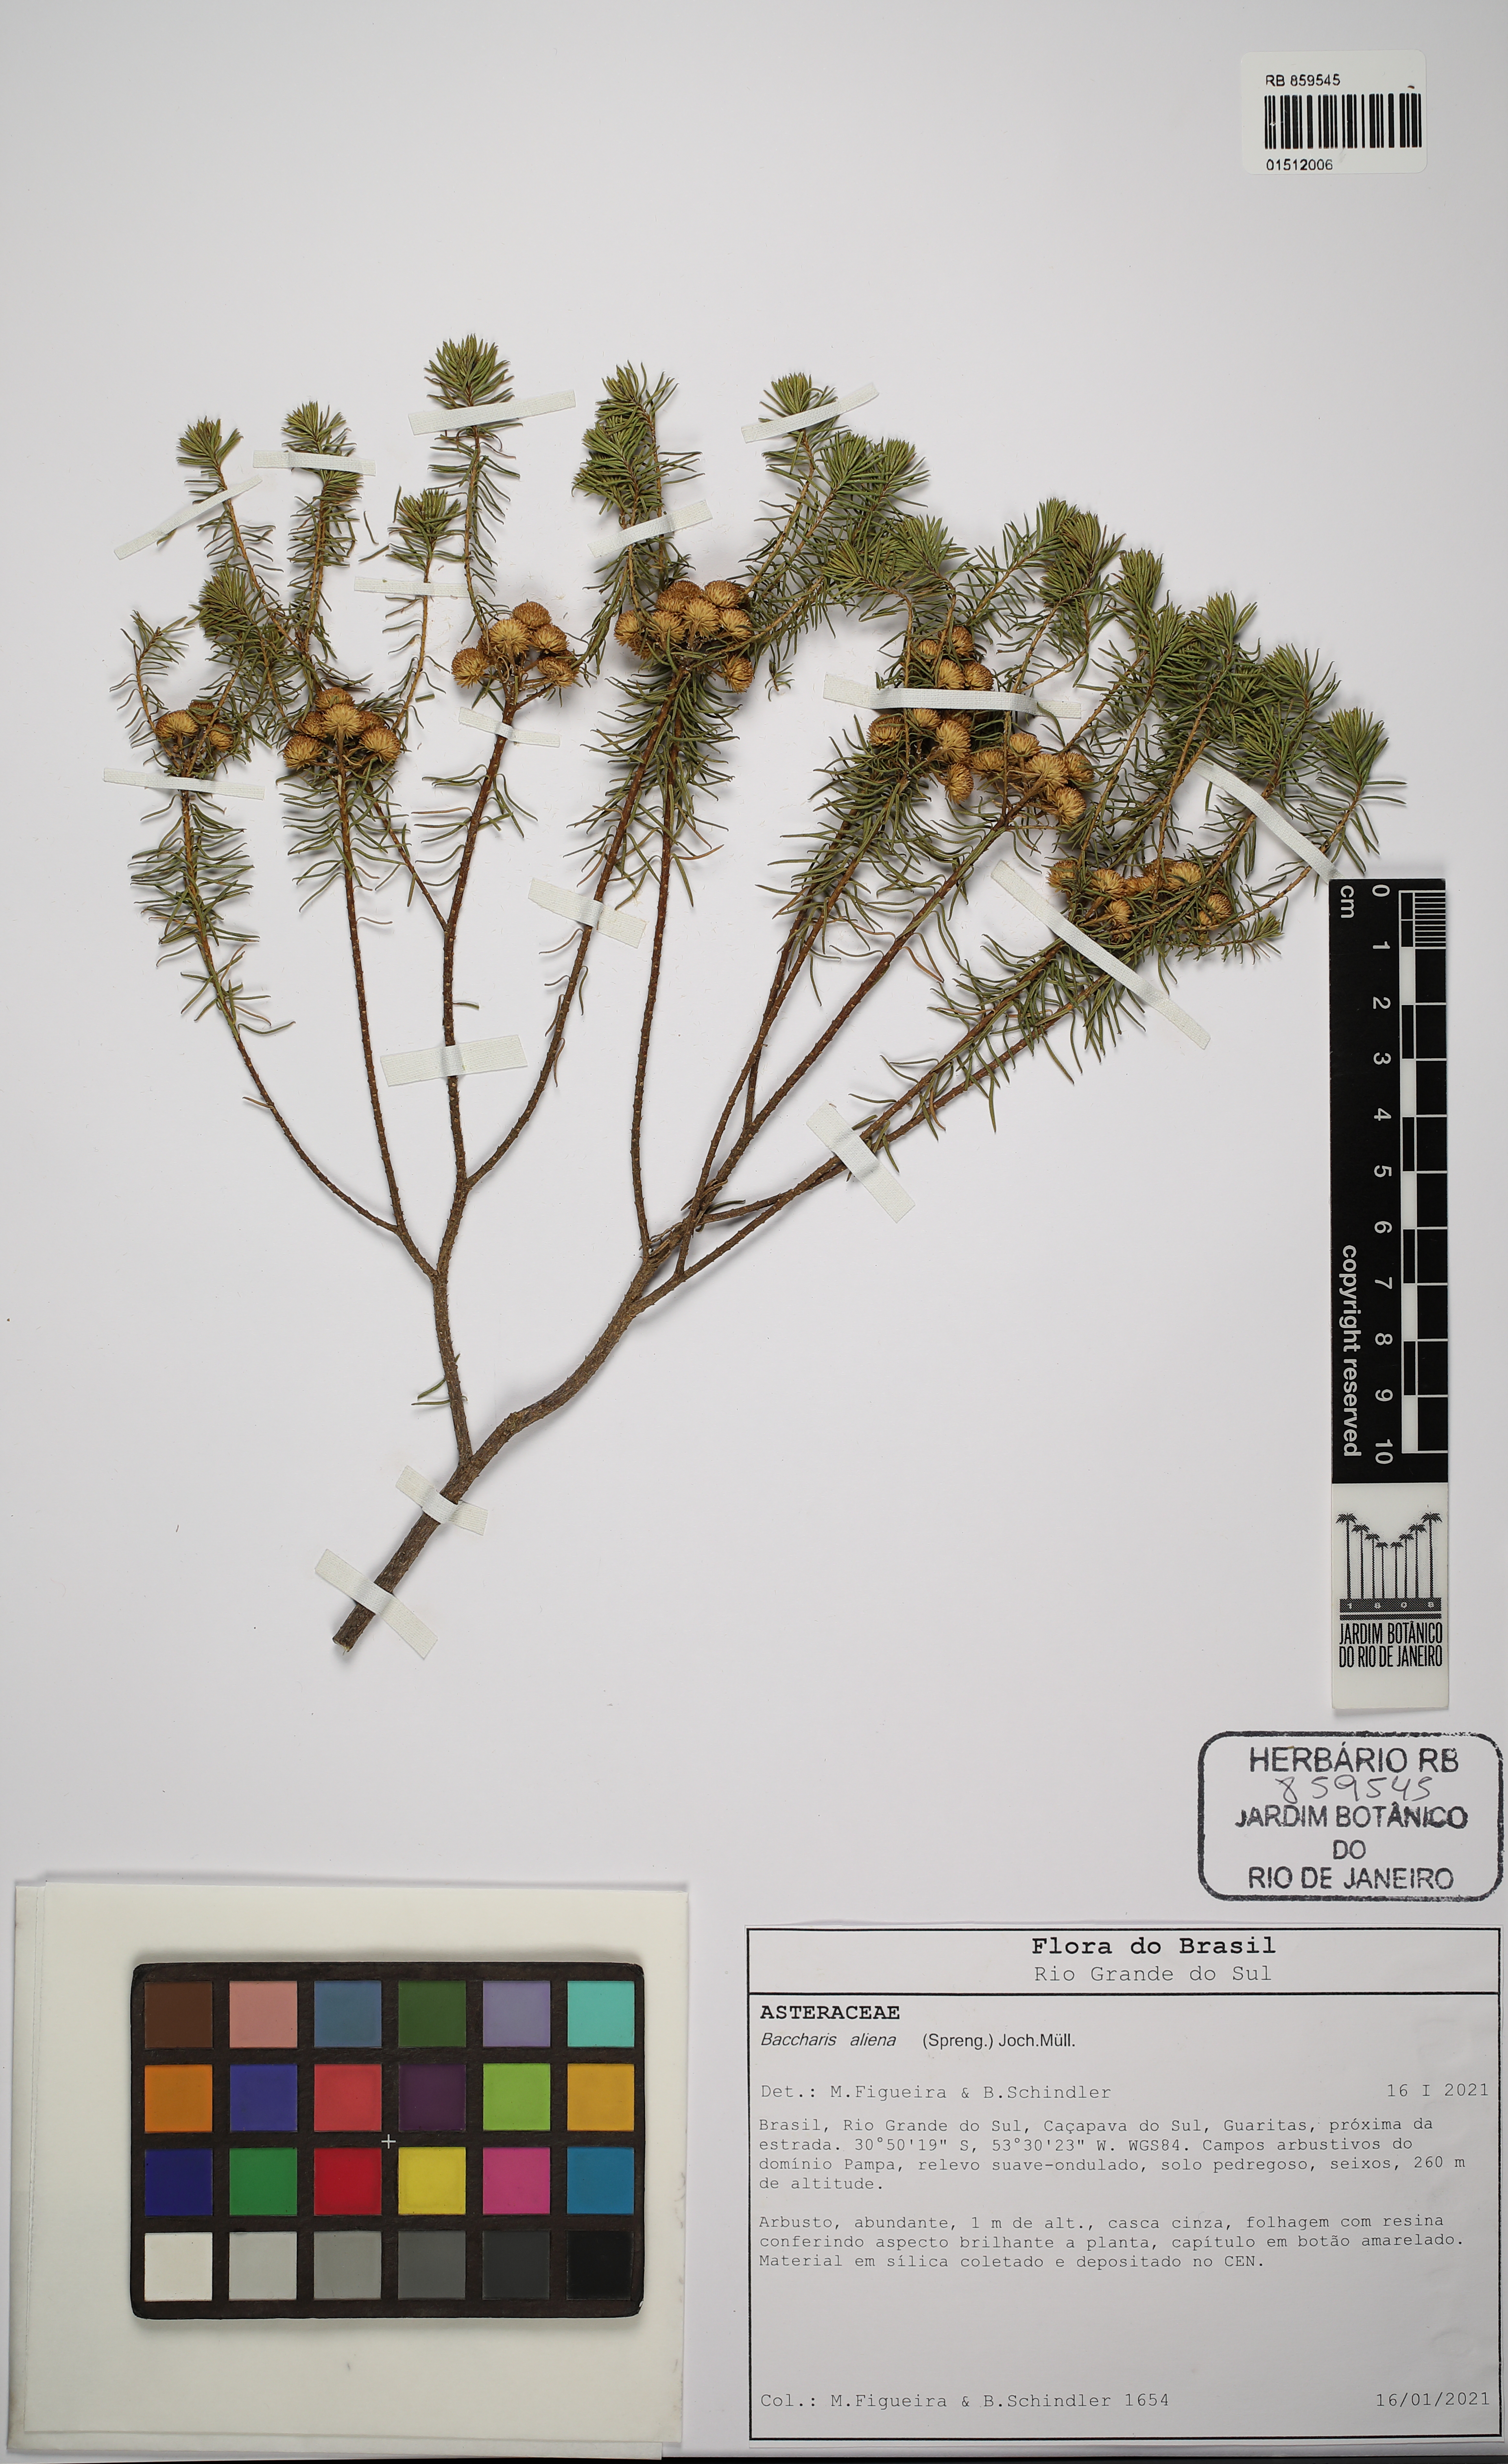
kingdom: Plantae
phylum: Tracheophyta
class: Magnoliopsida
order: Asterales
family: Asteraceae
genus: Baccharis
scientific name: Baccharis aliena
